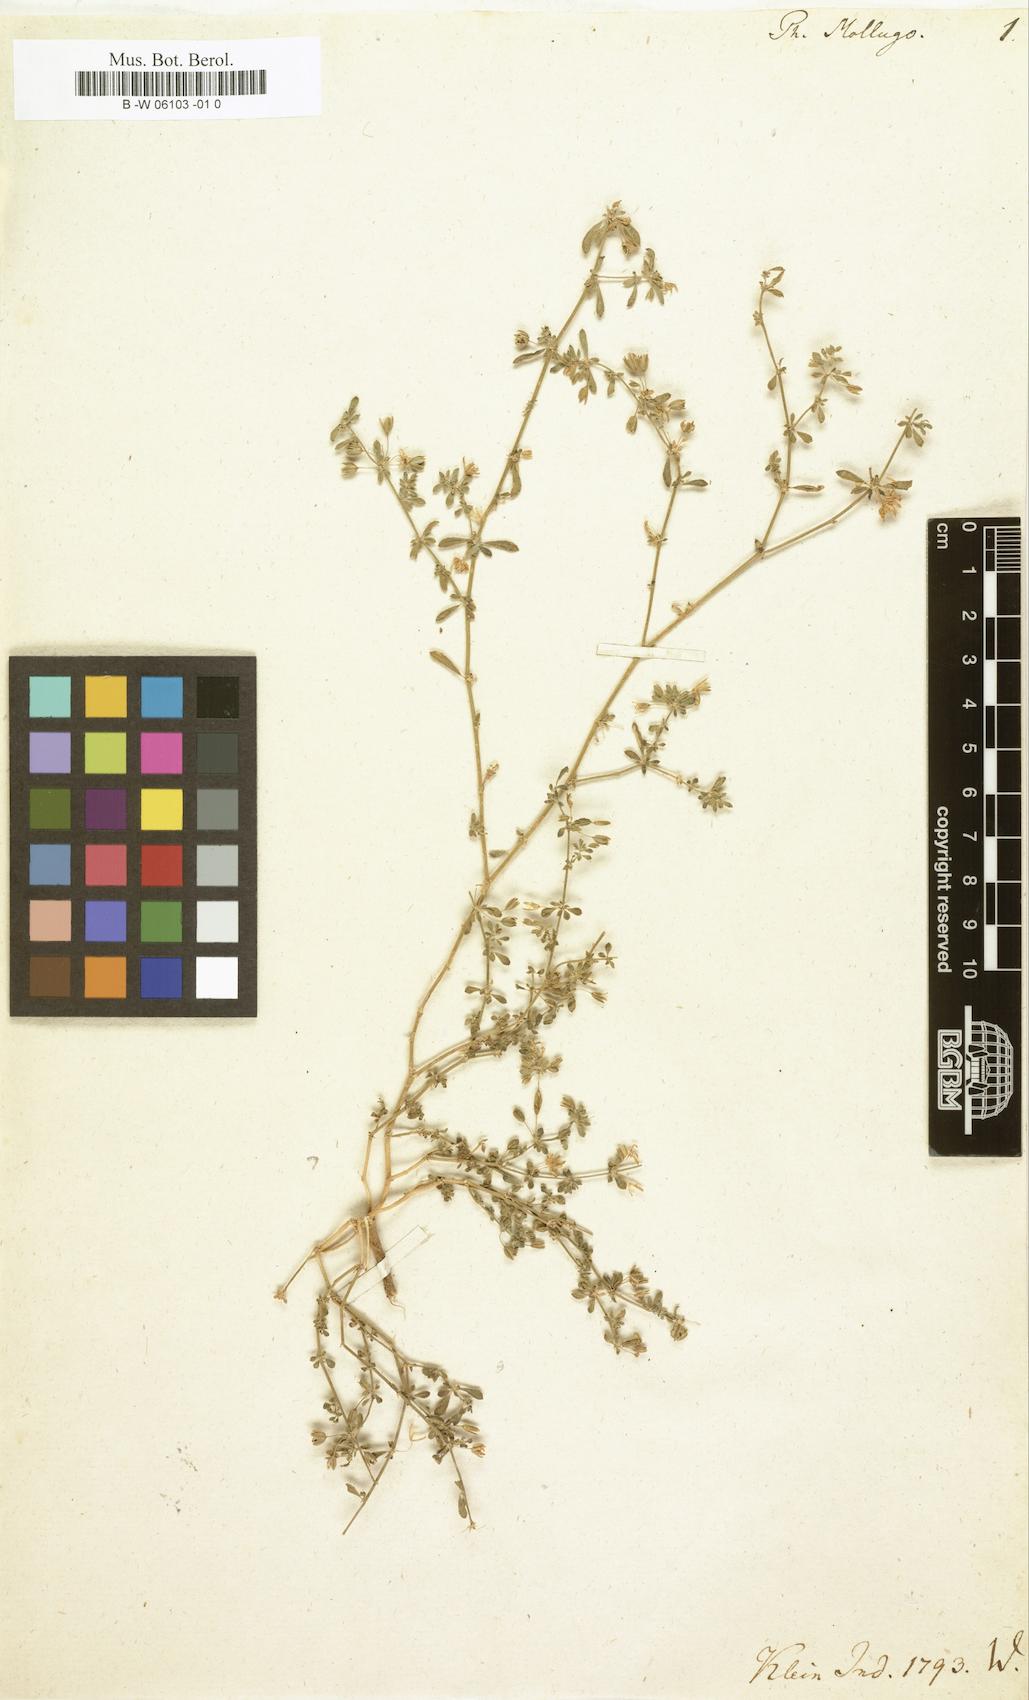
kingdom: Plantae
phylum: Tracheophyta
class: Magnoliopsida
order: Caryophyllales
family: Molluginaceae
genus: Glinus
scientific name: Glinus oppositifolius
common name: Slender carpetweed
